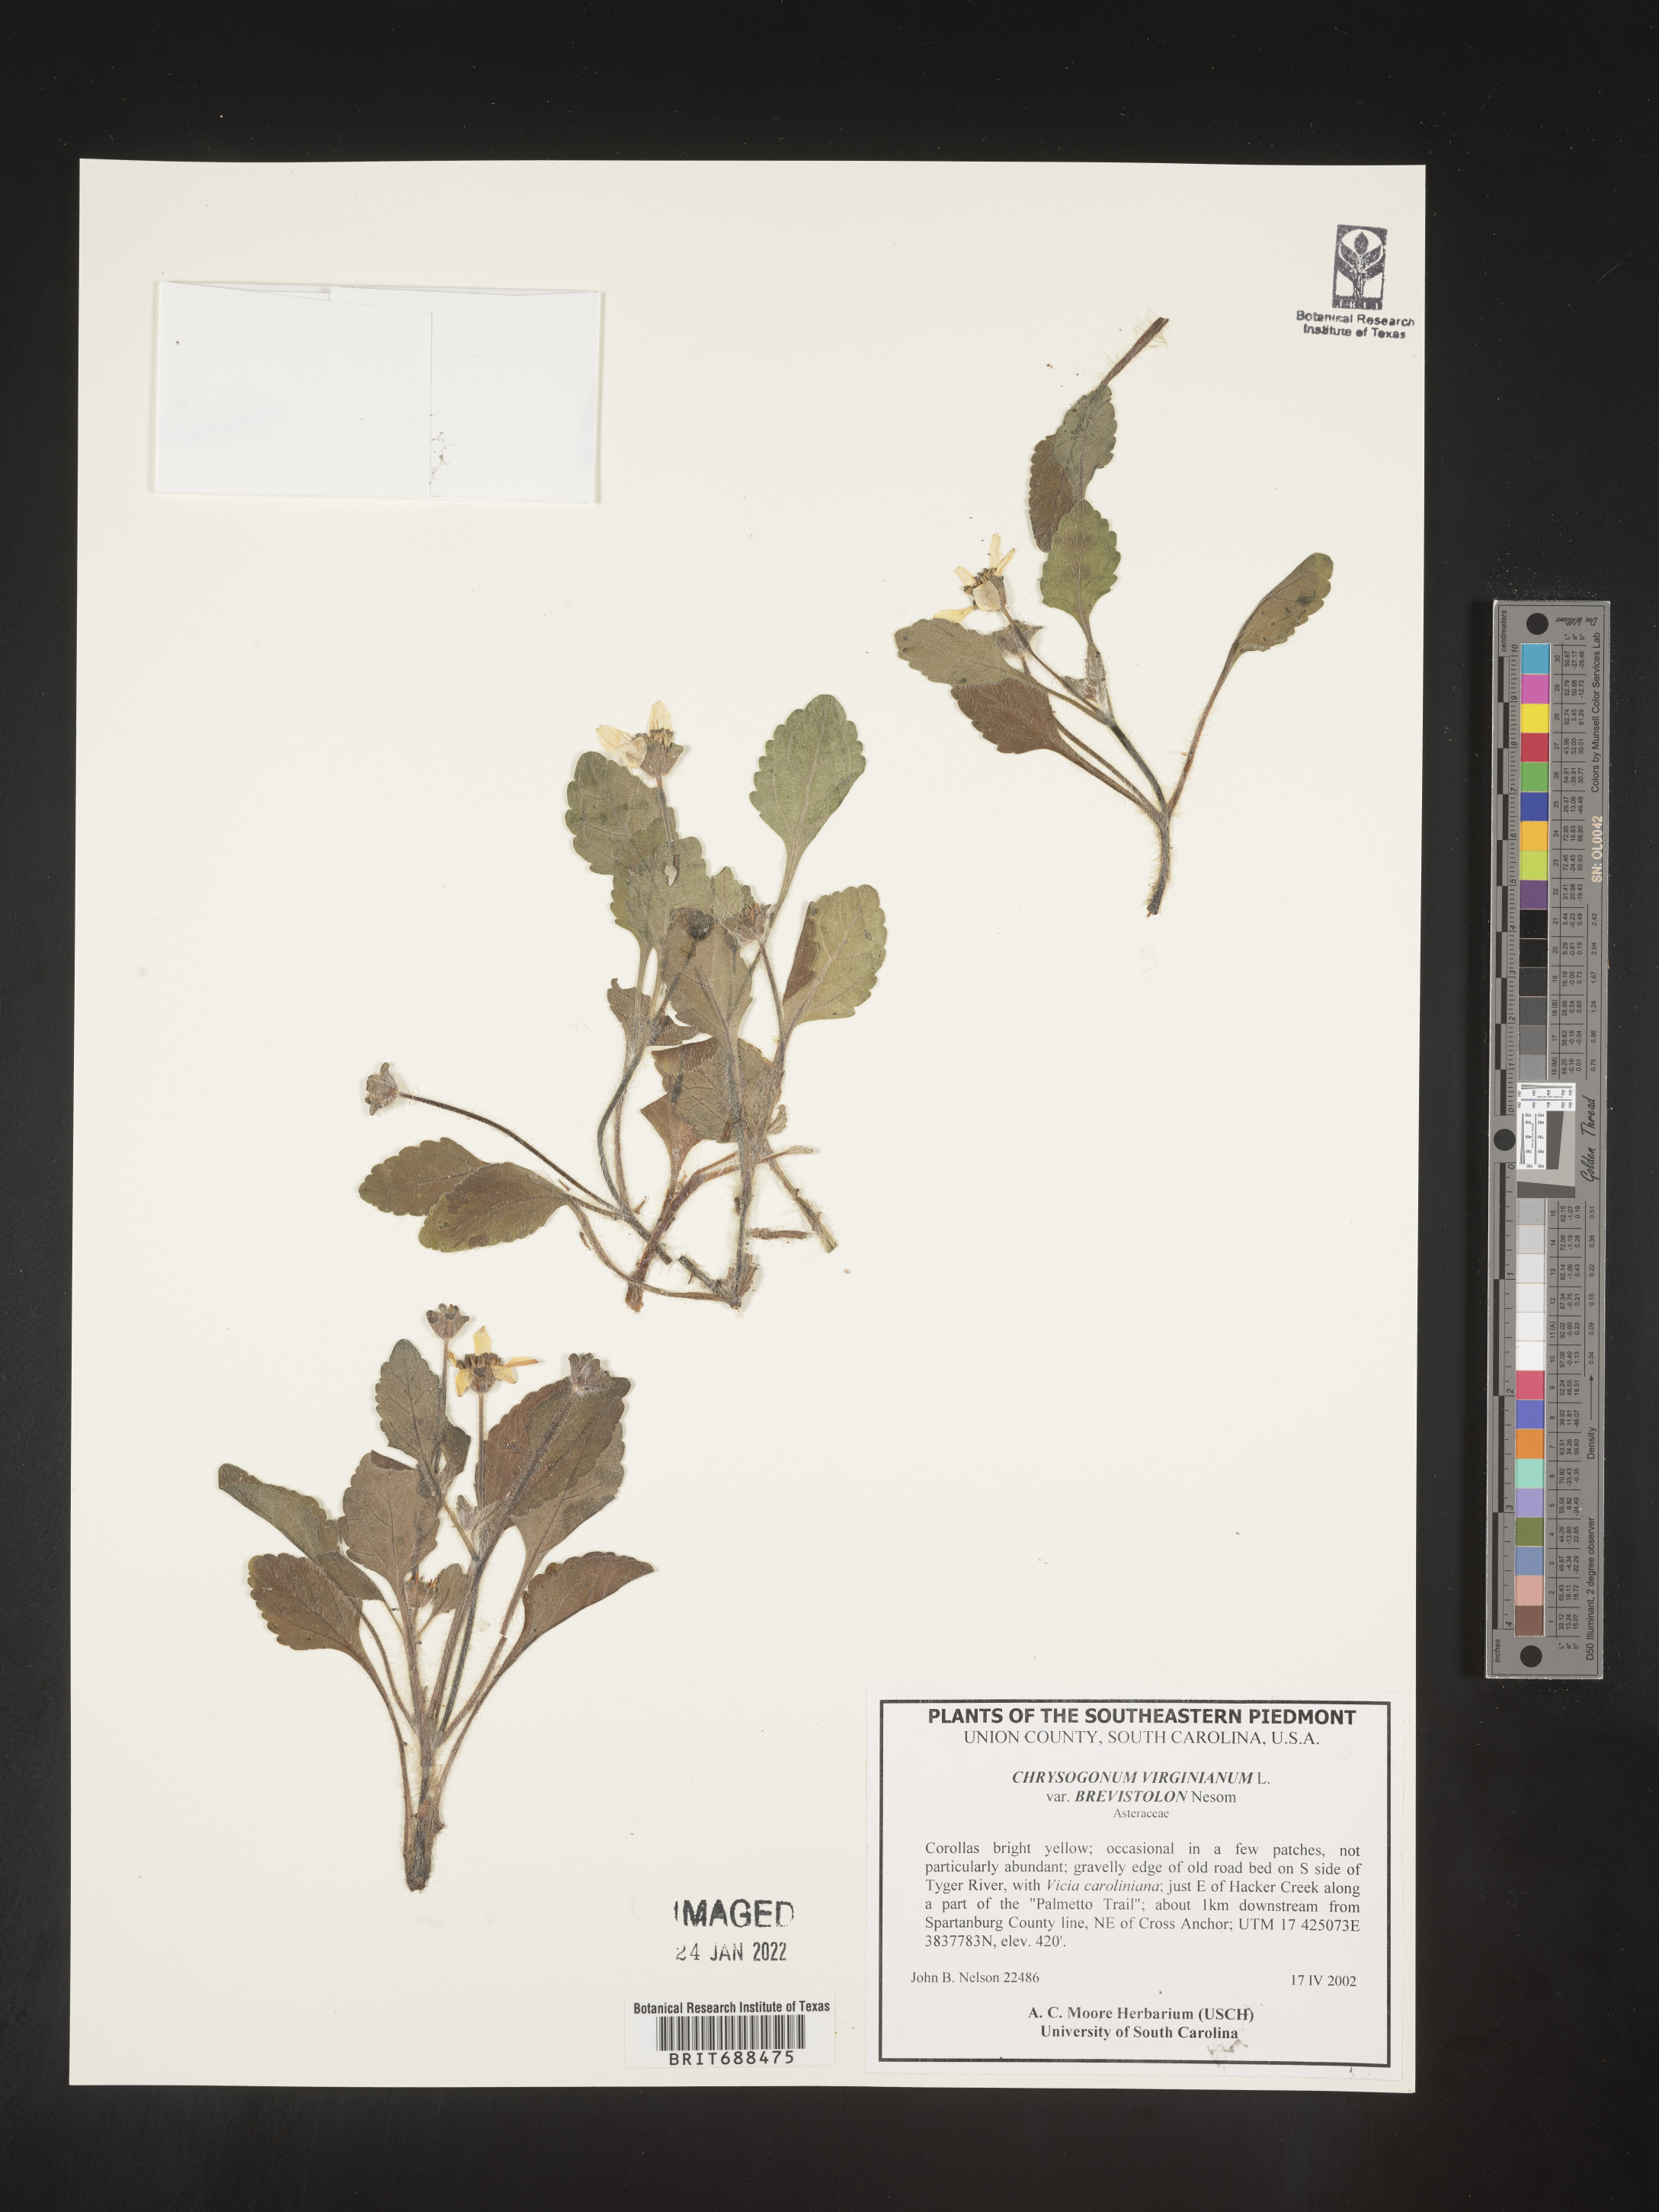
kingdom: Plantae
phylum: Tracheophyta
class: Magnoliopsida
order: Asterales
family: Asteraceae
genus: Chrysogonum
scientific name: Chrysogonum virginianum
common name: Golden-knee
